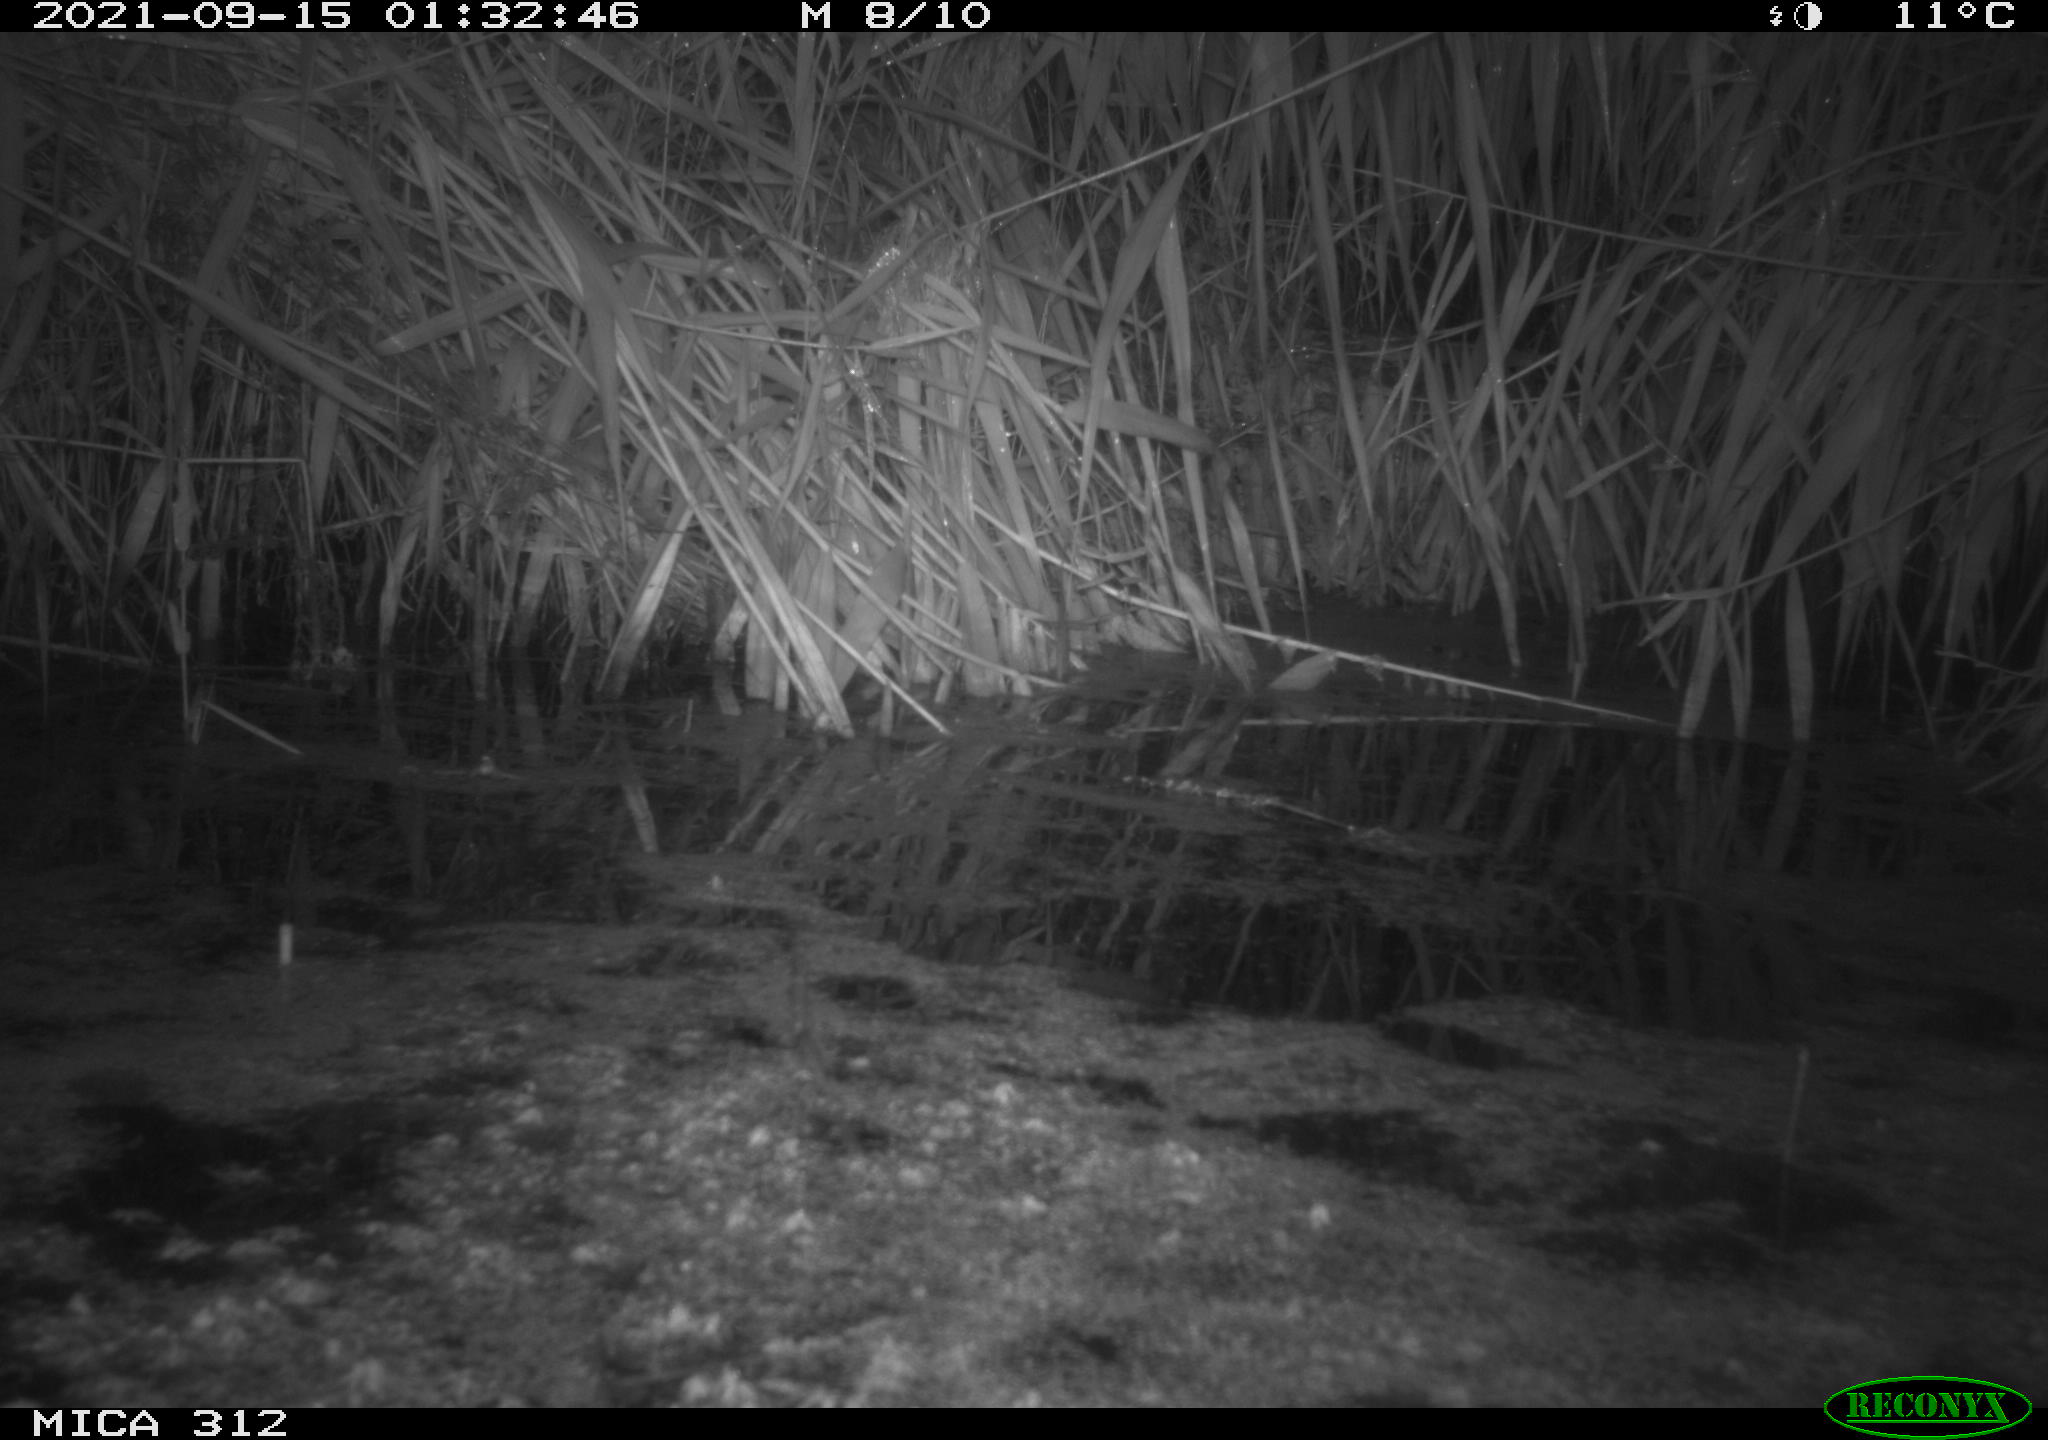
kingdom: Animalia
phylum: Chordata
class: Mammalia
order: Rodentia
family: Muridae
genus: Rattus
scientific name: Rattus norvegicus
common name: Brown rat
